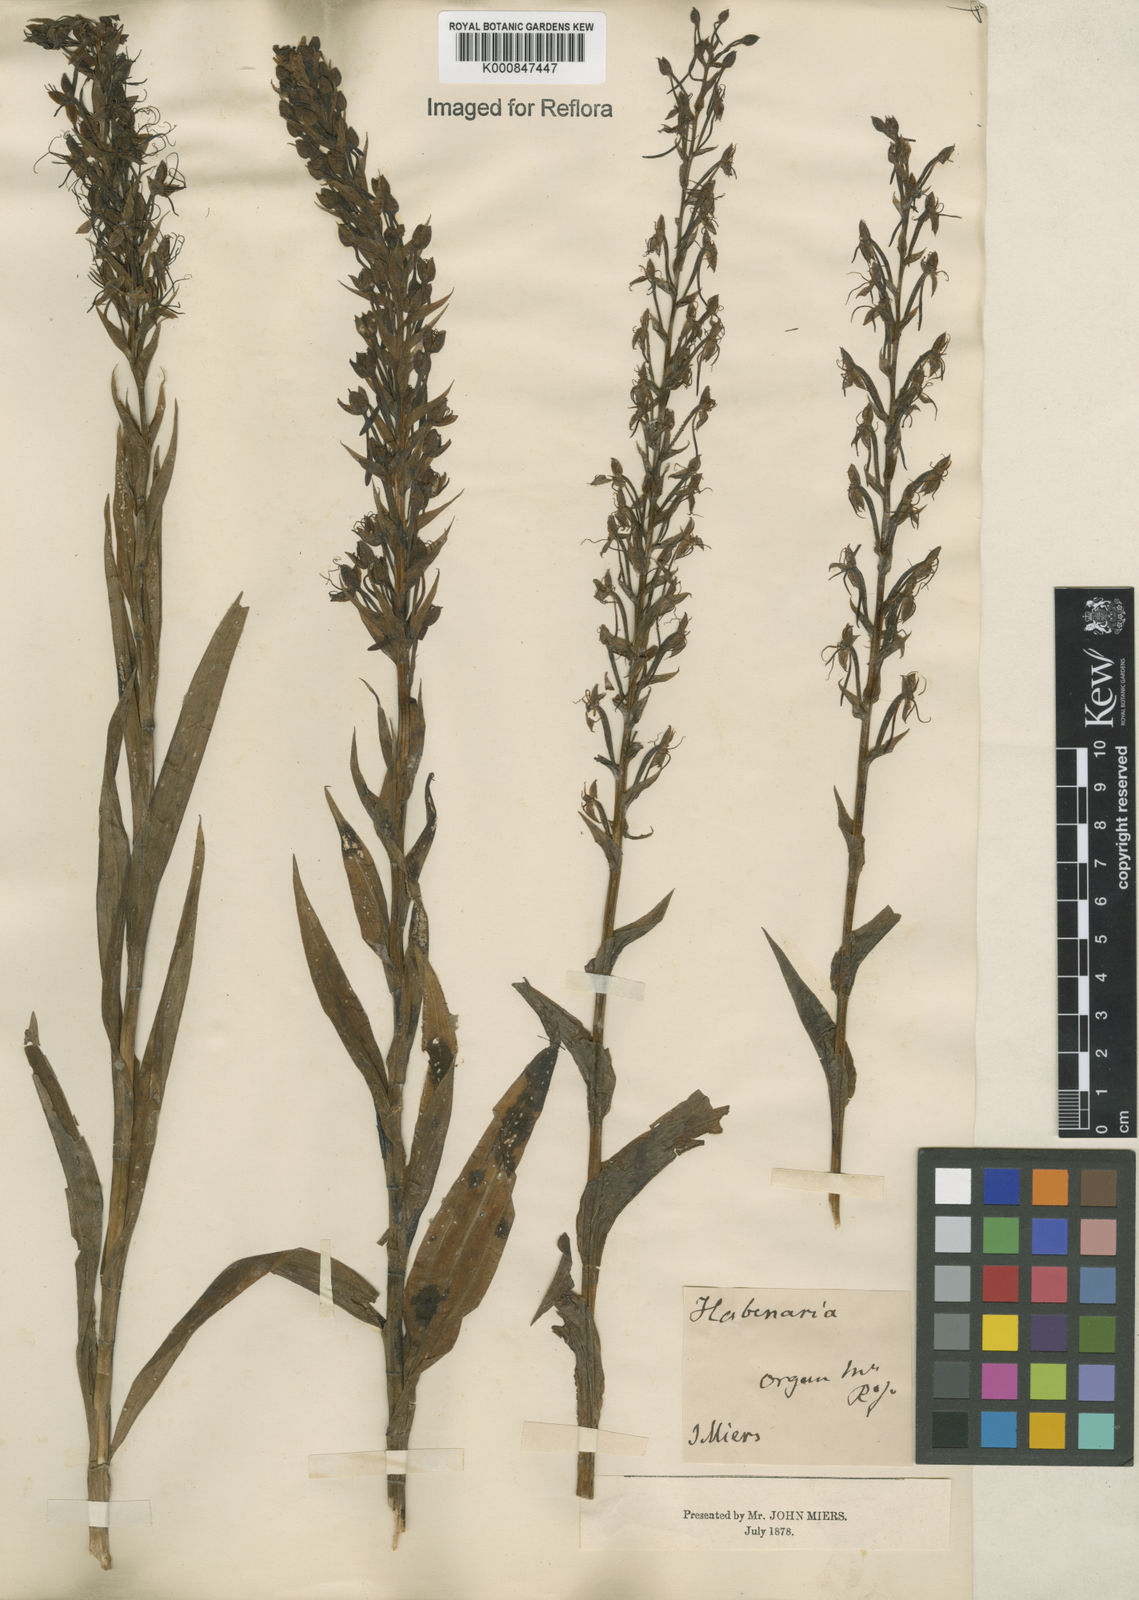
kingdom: Plantae
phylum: Tracheophyta
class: Liliopsida
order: Asparagales
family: Orchidaceae
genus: Habenaria
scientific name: Habenaria repens
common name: Water orchid
